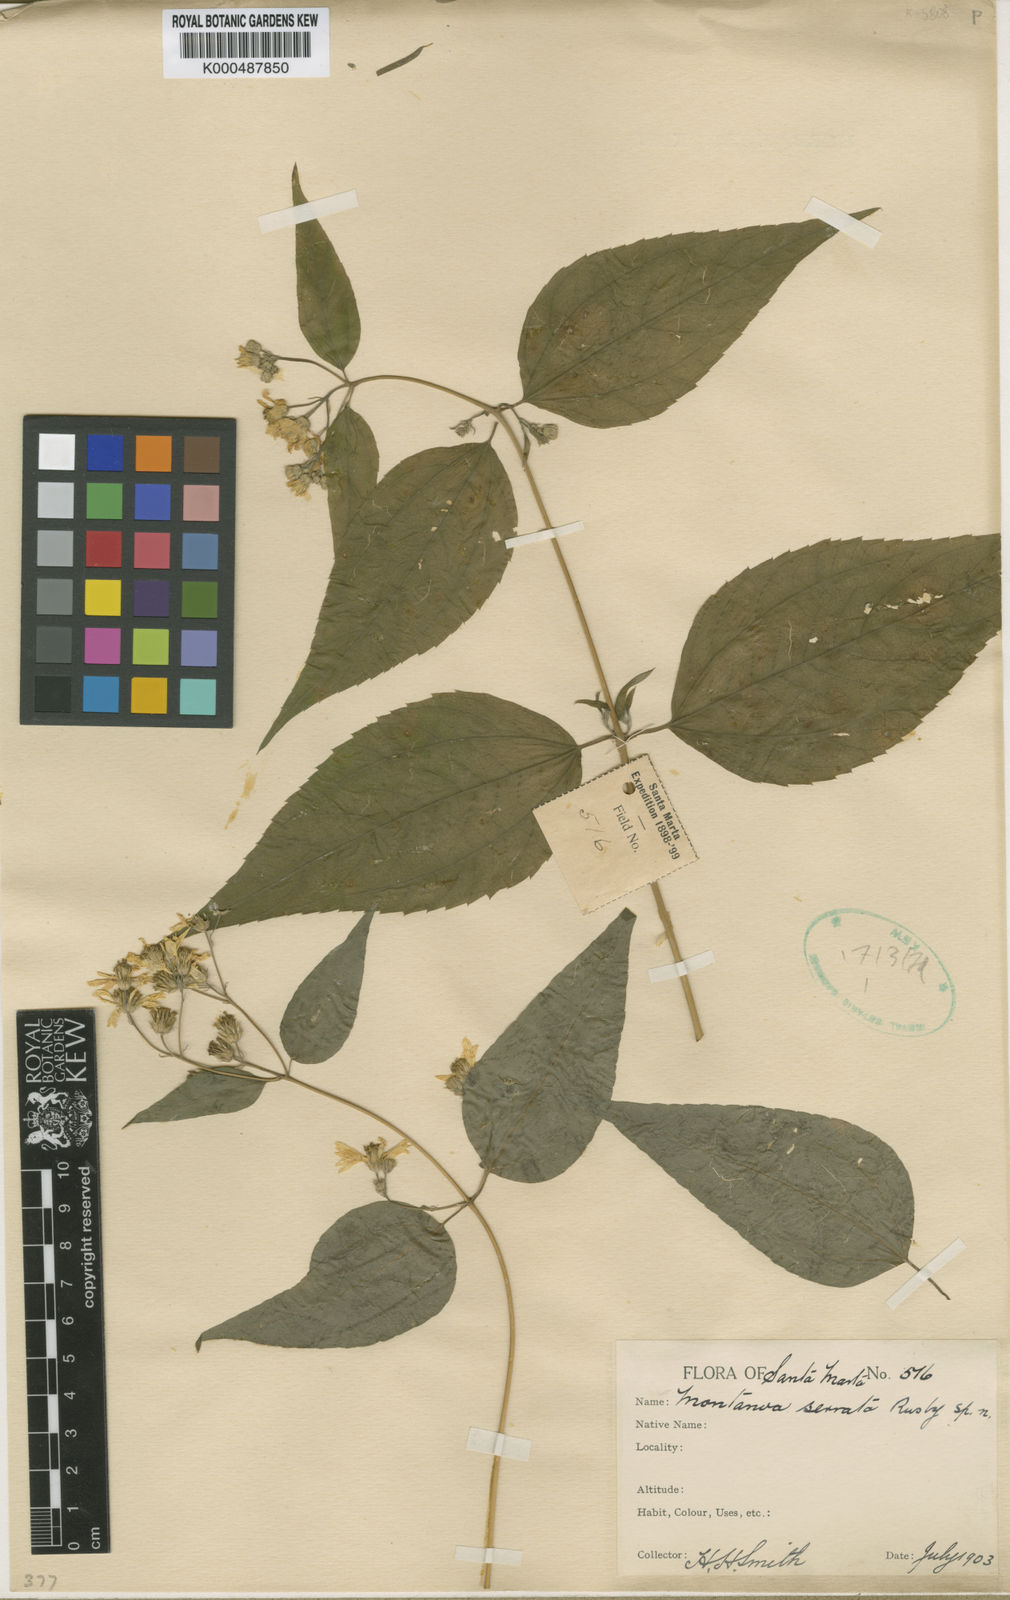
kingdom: Plantae
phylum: Tracheophyta
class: Magnoliopsida
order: Asterales
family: Asteraceae
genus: Hymenostephium
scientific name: Hymenostephium serratum
